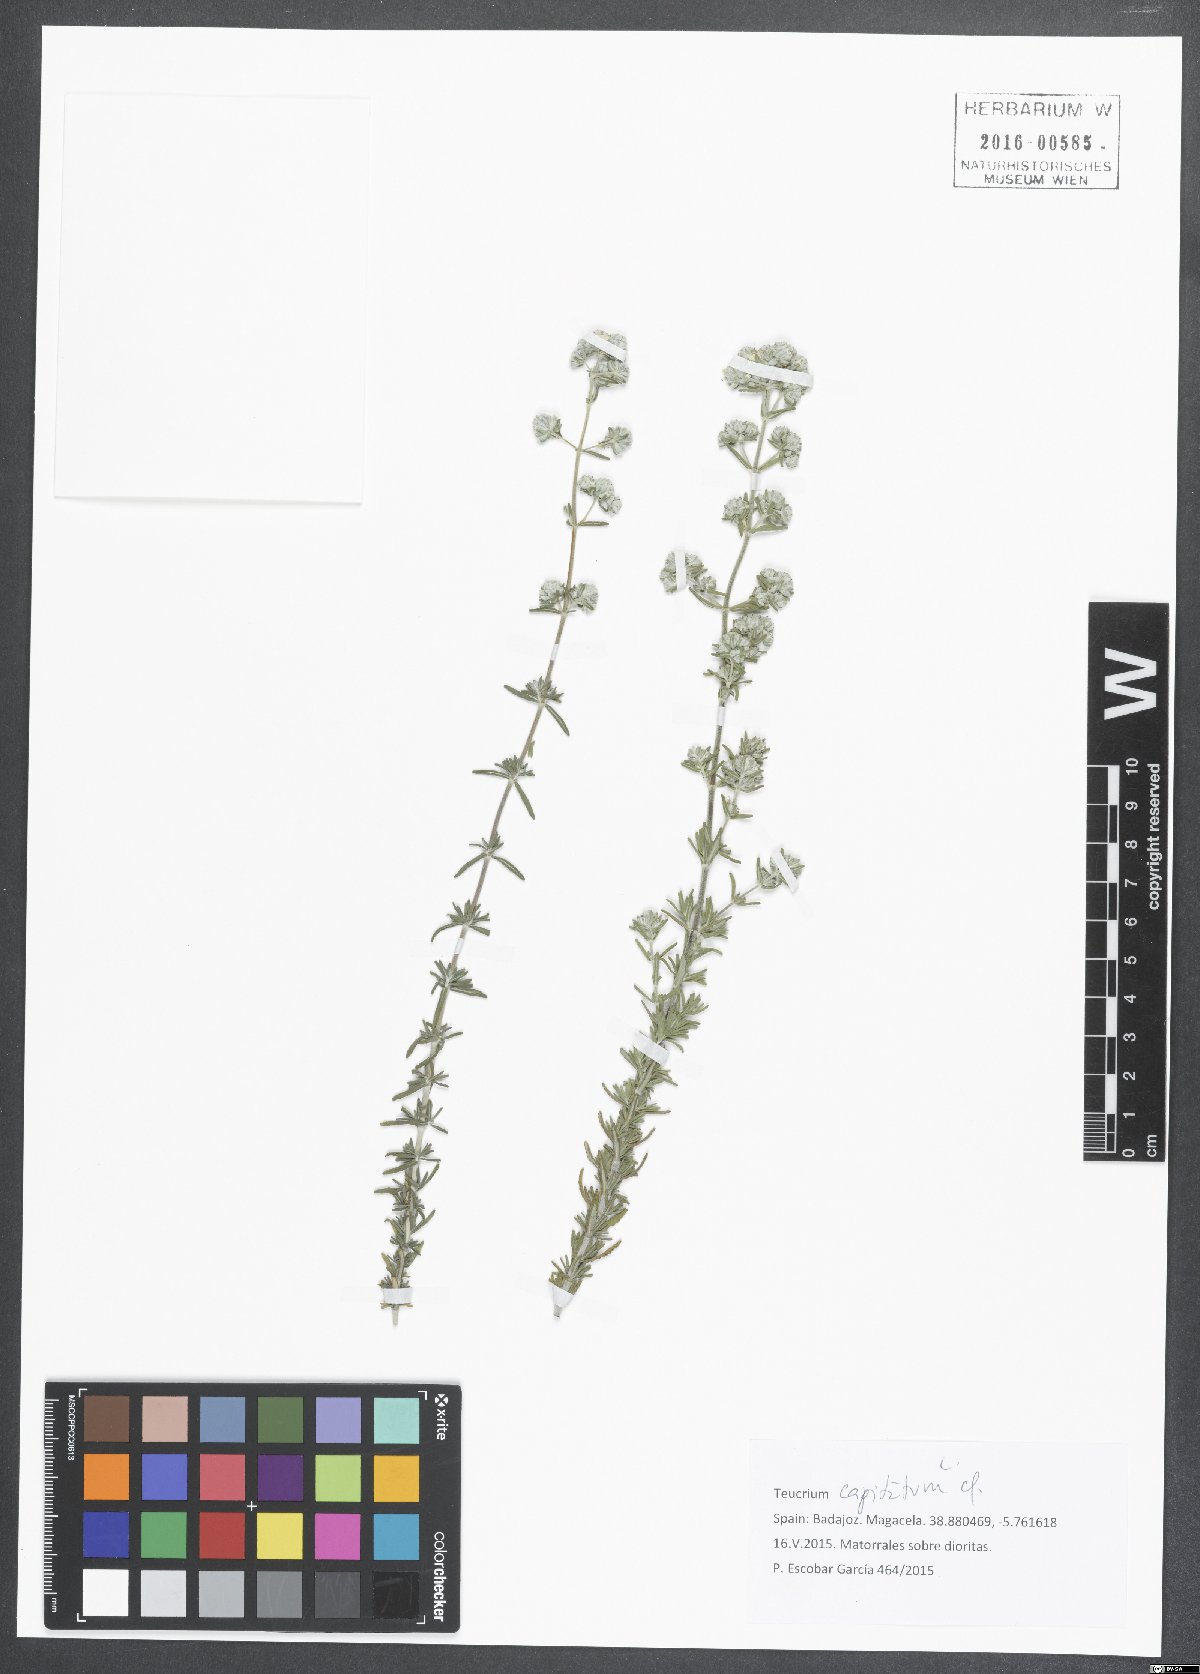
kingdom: Plantae
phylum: Tracheophyta
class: Magnoliopsida
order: Lamiales
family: Lamiaceae
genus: Teucrium
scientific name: Teucrium capitatum
